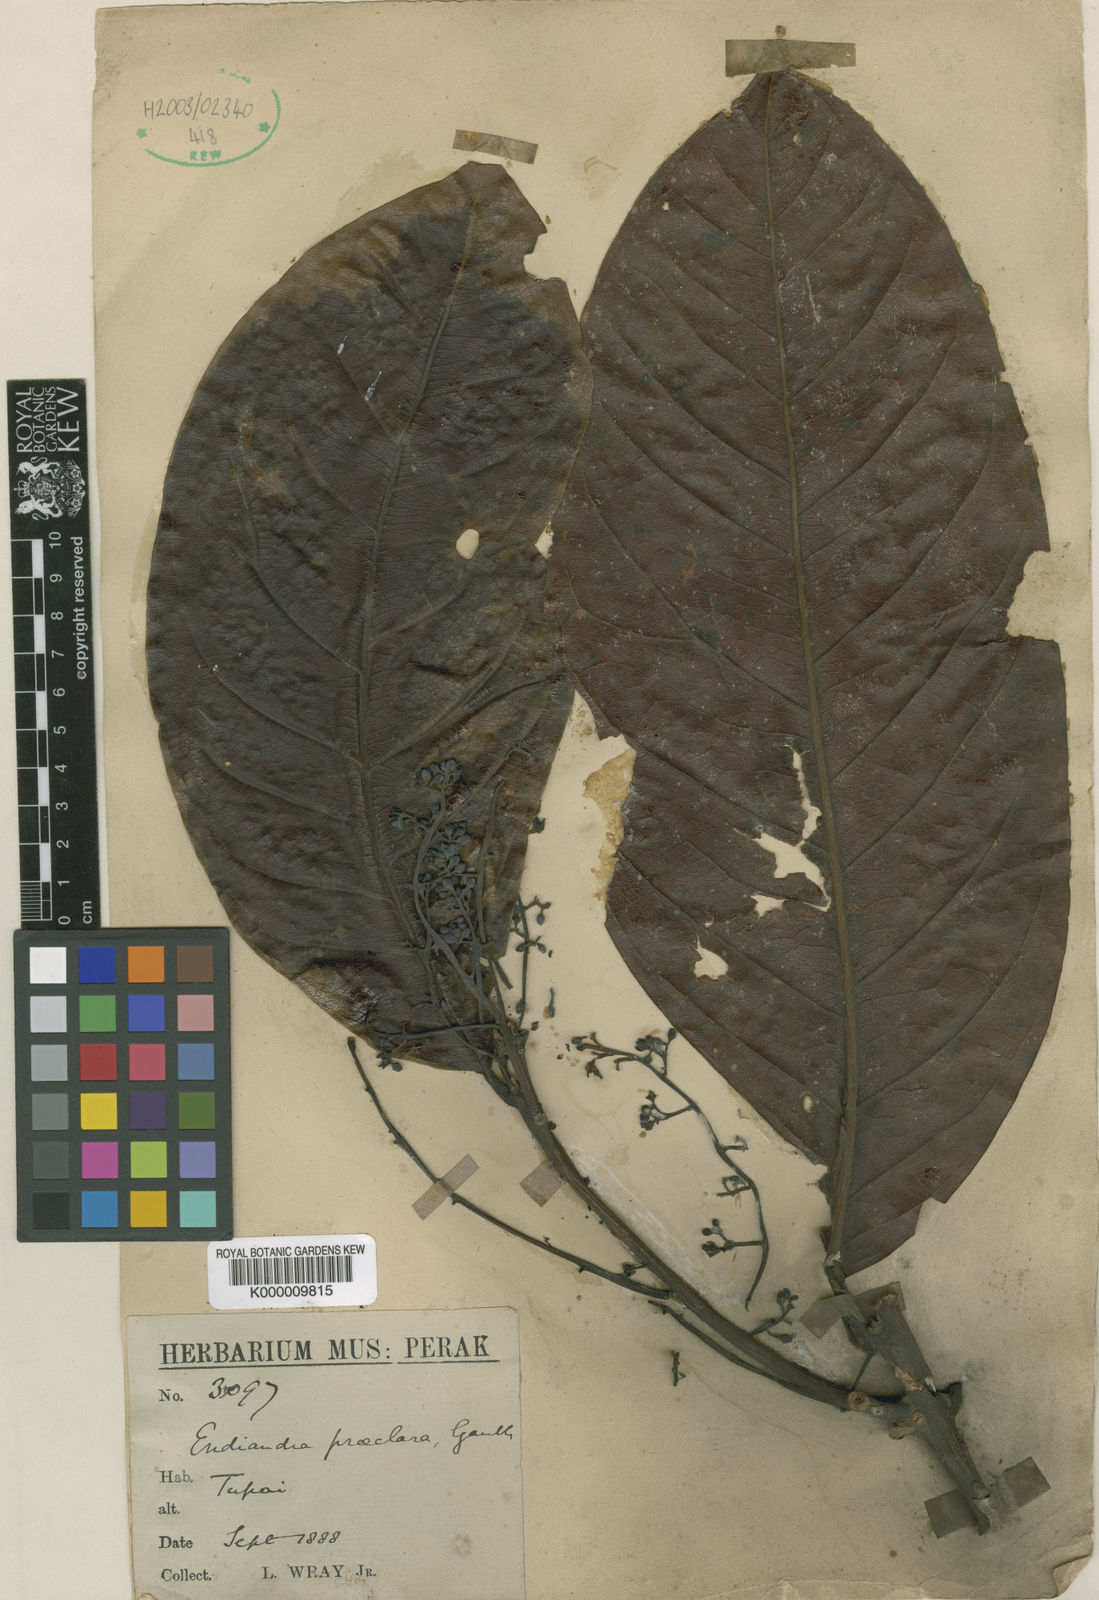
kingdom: Plantae
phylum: Tracheophyta
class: Magnoliopsida
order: Laurales
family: Lauraceae
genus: Endiandra
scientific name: Endiandra praeclara
